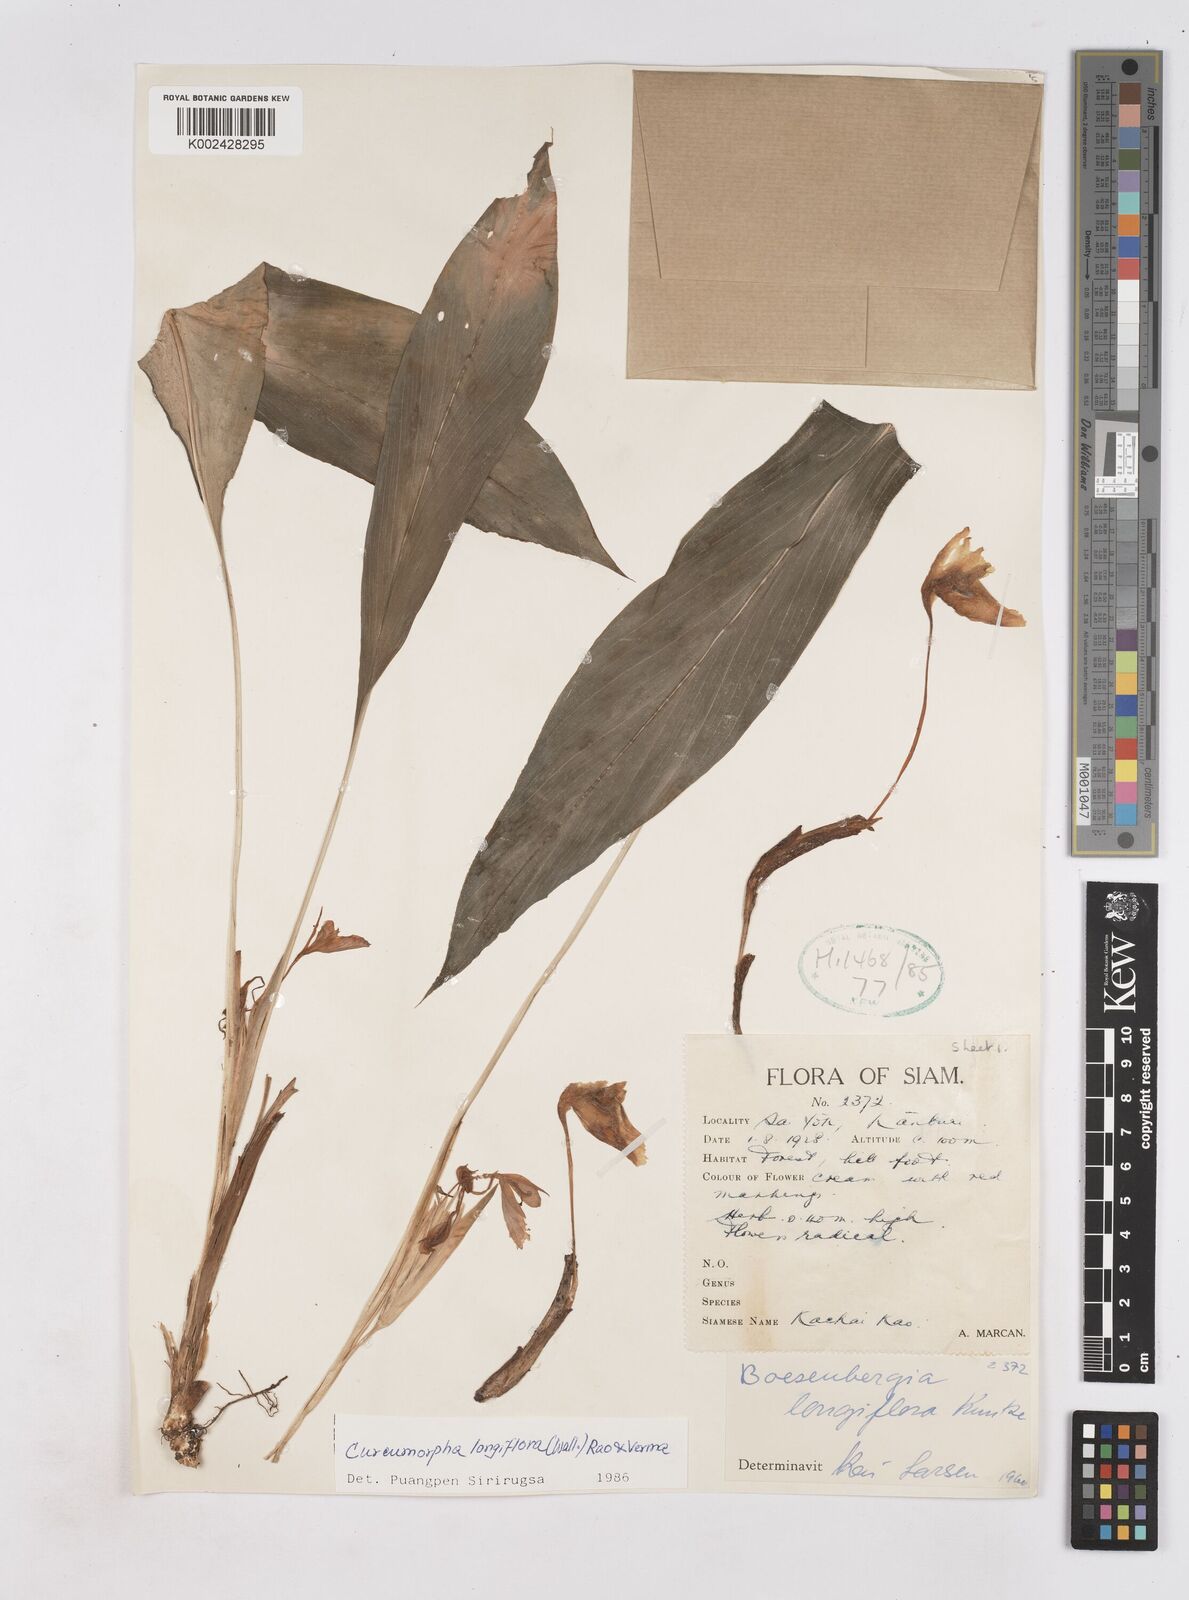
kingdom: Plantae
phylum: Tracheophyta
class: Liliopsida
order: Zingiberales
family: Zingiberaceae
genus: Boesenbergia
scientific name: Boesenbergia longiflora
